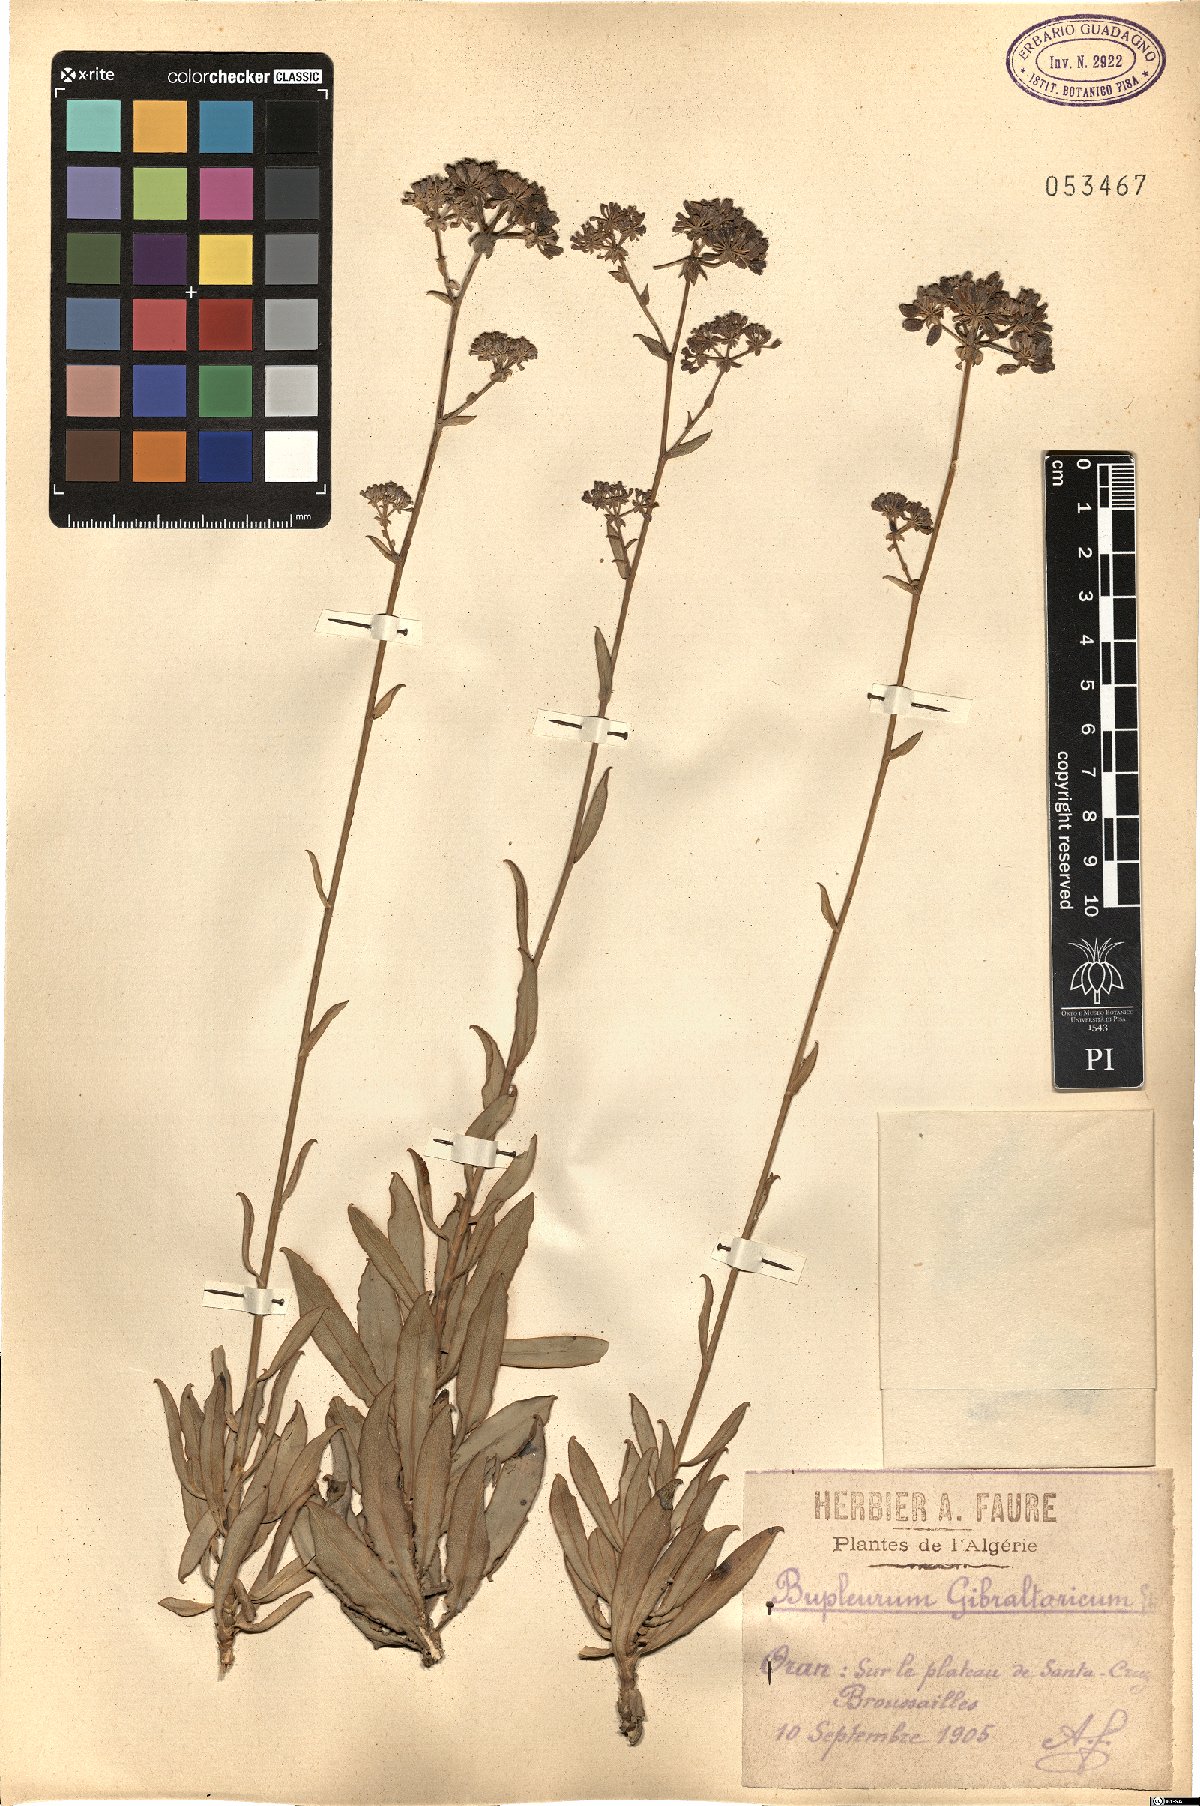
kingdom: Plantae
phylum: Tracheophyta
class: Magnoliopsida
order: Apiales
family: Apiaceae
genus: Bupleurum
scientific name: Bupleurum gibraltaricum
